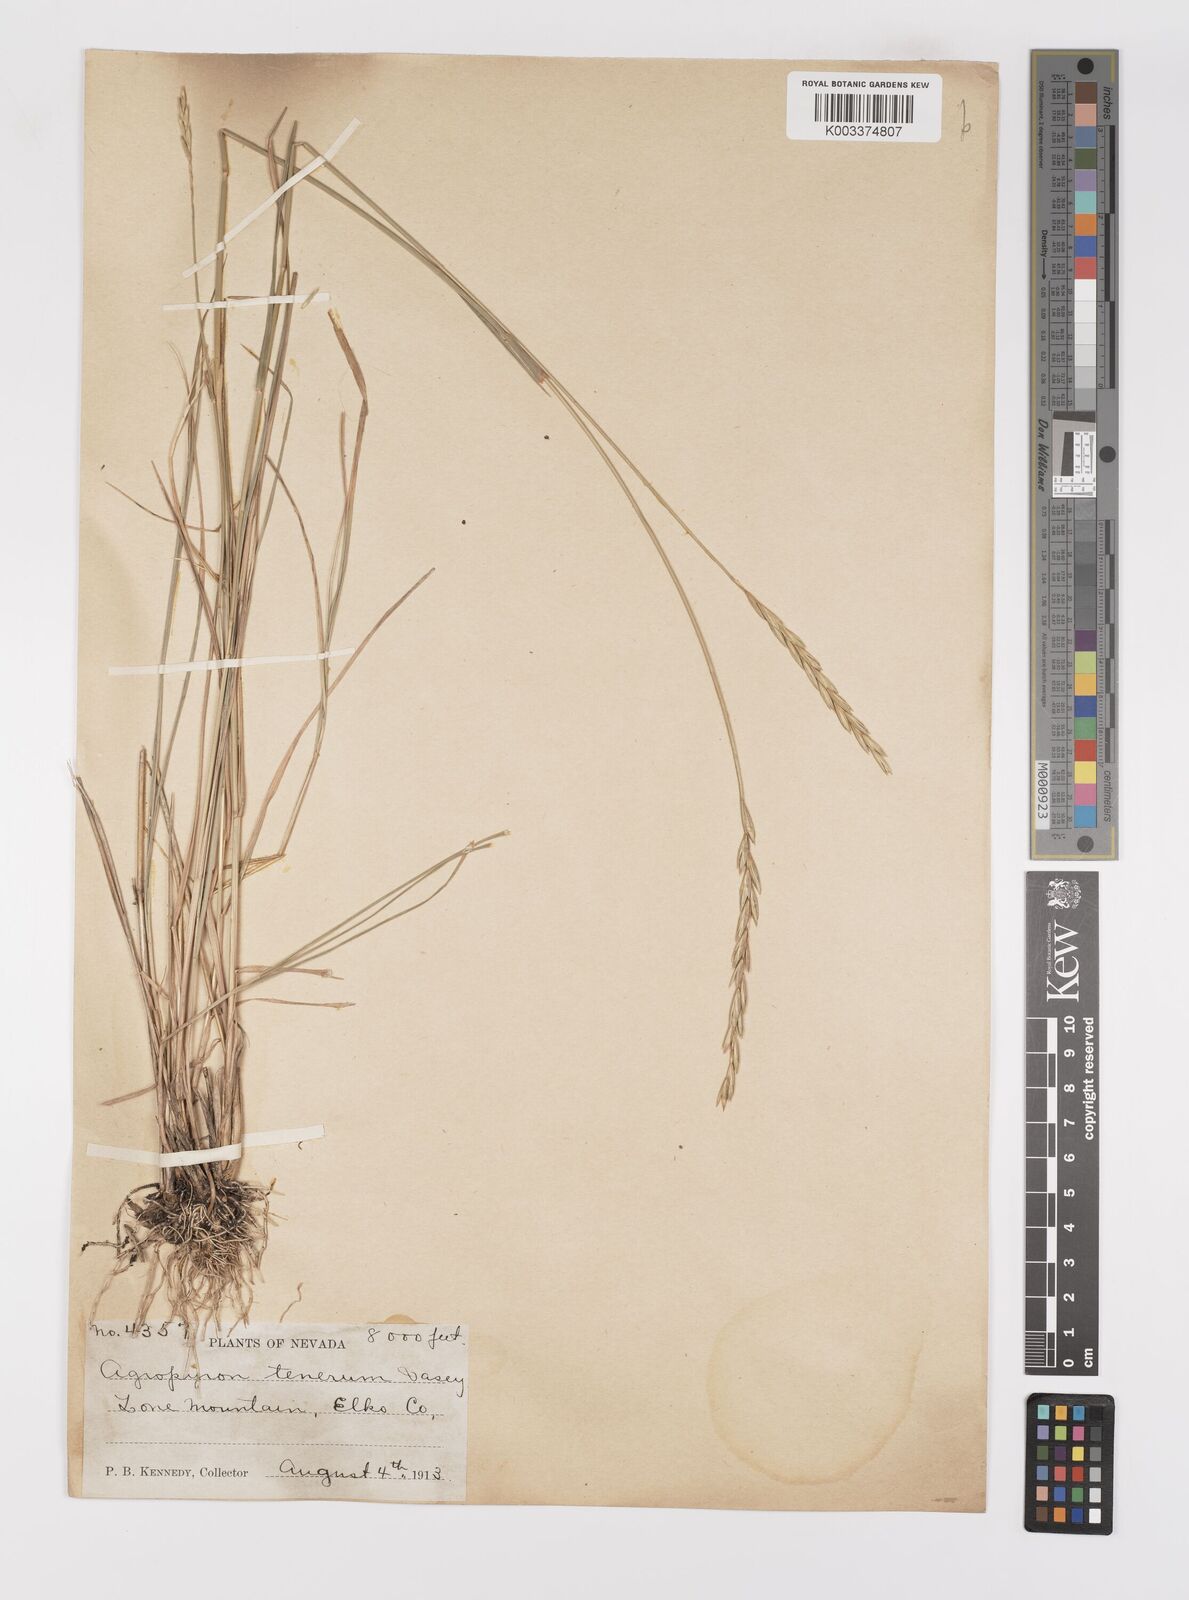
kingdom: Plantae
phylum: Tracheophyta
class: Liliopsida
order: Poales
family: Poaceae
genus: Elymus
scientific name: Elymus violaceus
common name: Arctic wheatgrass
